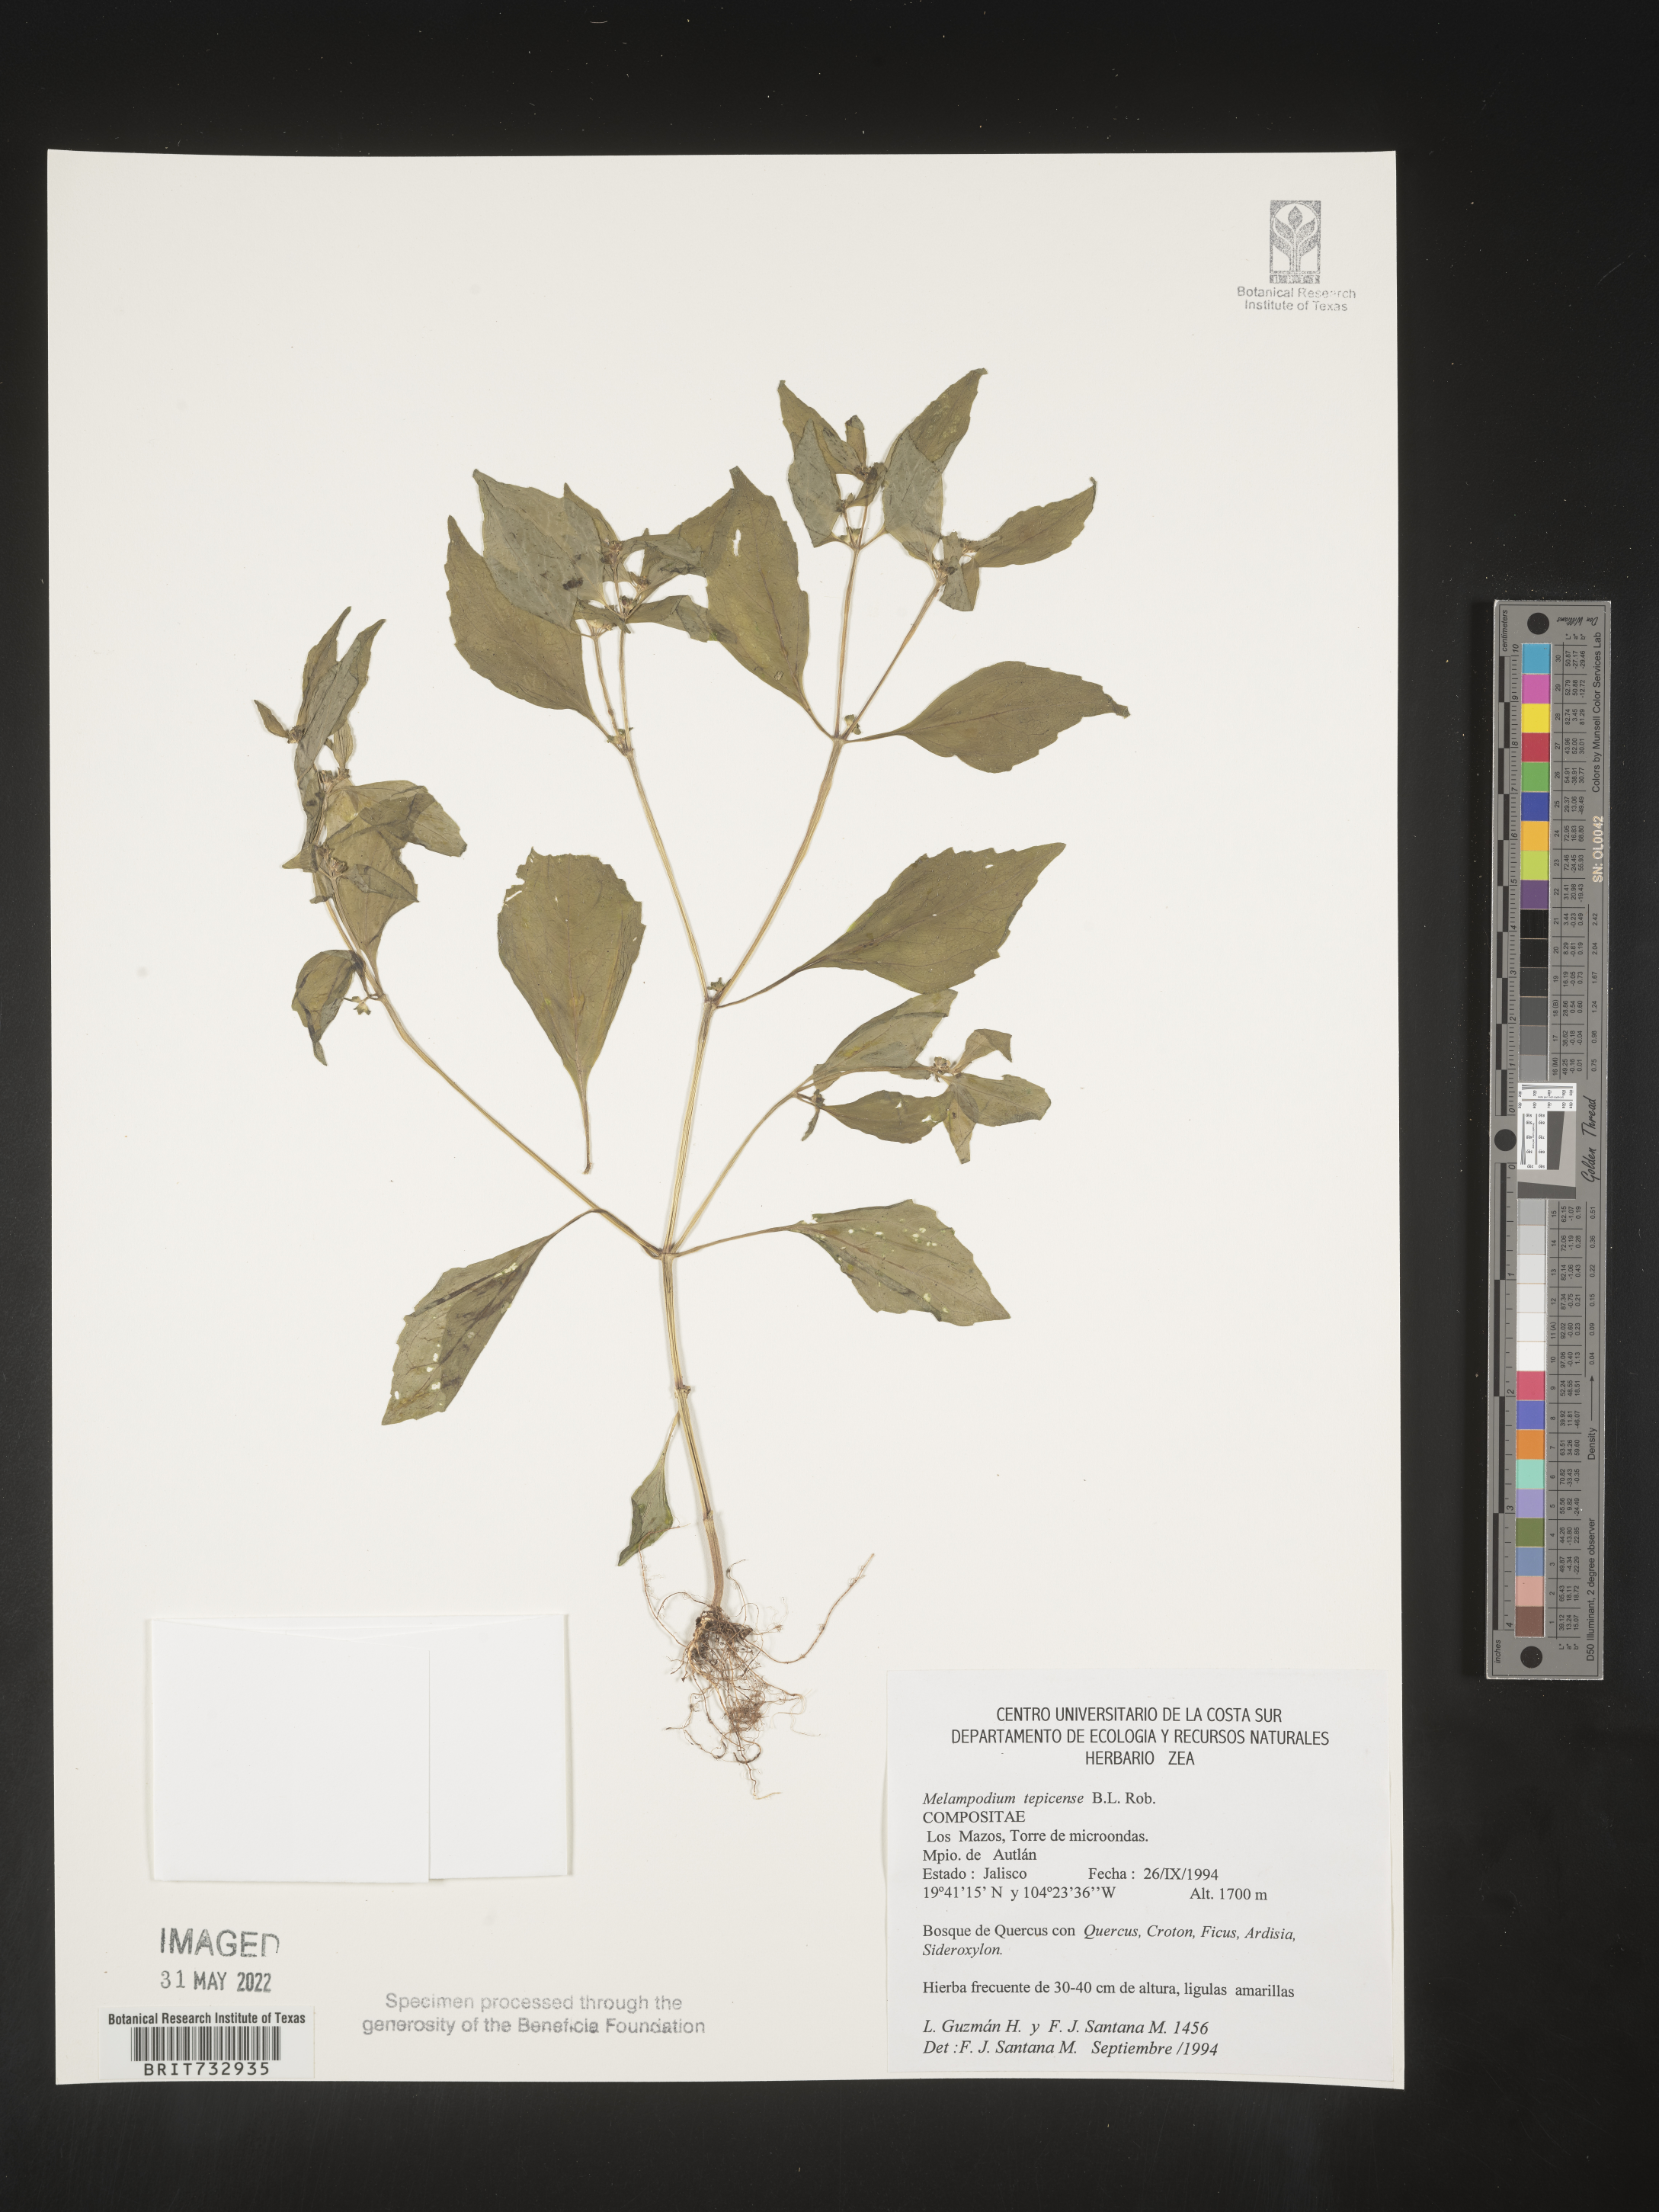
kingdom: Plantae
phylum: Tracheophyta
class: Magnoliopsida
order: Asterales
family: Asteraceae
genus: Melampodium
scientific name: Melampodium
